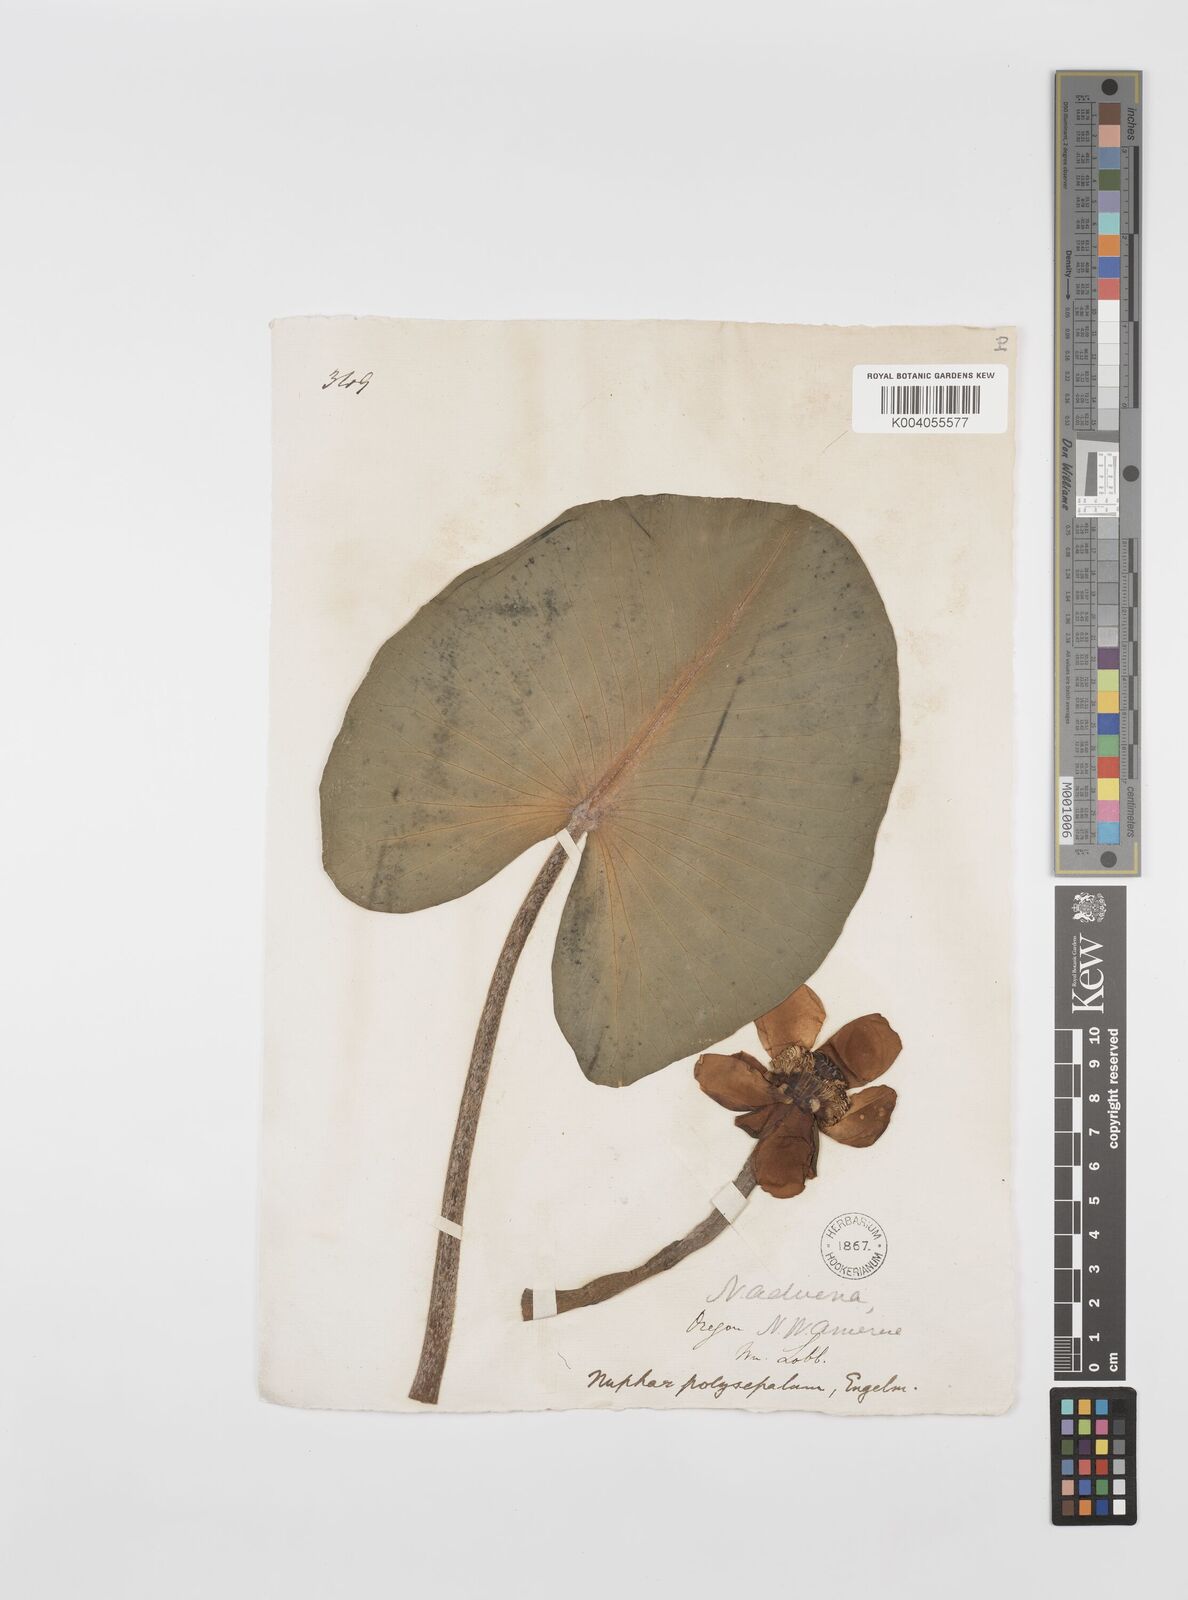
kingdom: Plantae
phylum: Tracheophyta
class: Magnoliopsida
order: Nymphaeales
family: Nymphaeaceae
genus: Nuphar
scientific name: Nuphar advena
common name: Spatter-dock
